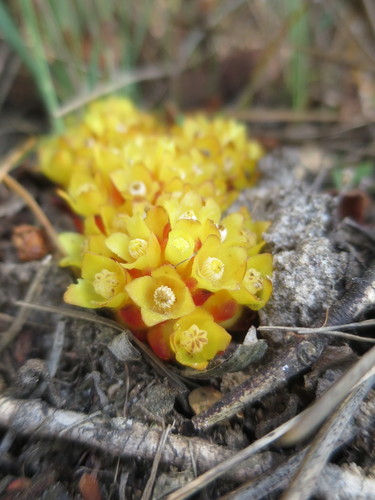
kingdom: Plantae
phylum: Tracheophyta
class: Magnoliopsida
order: Malvales
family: Cytinaceae
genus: Cytinus
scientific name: Cytinus hypocistis
